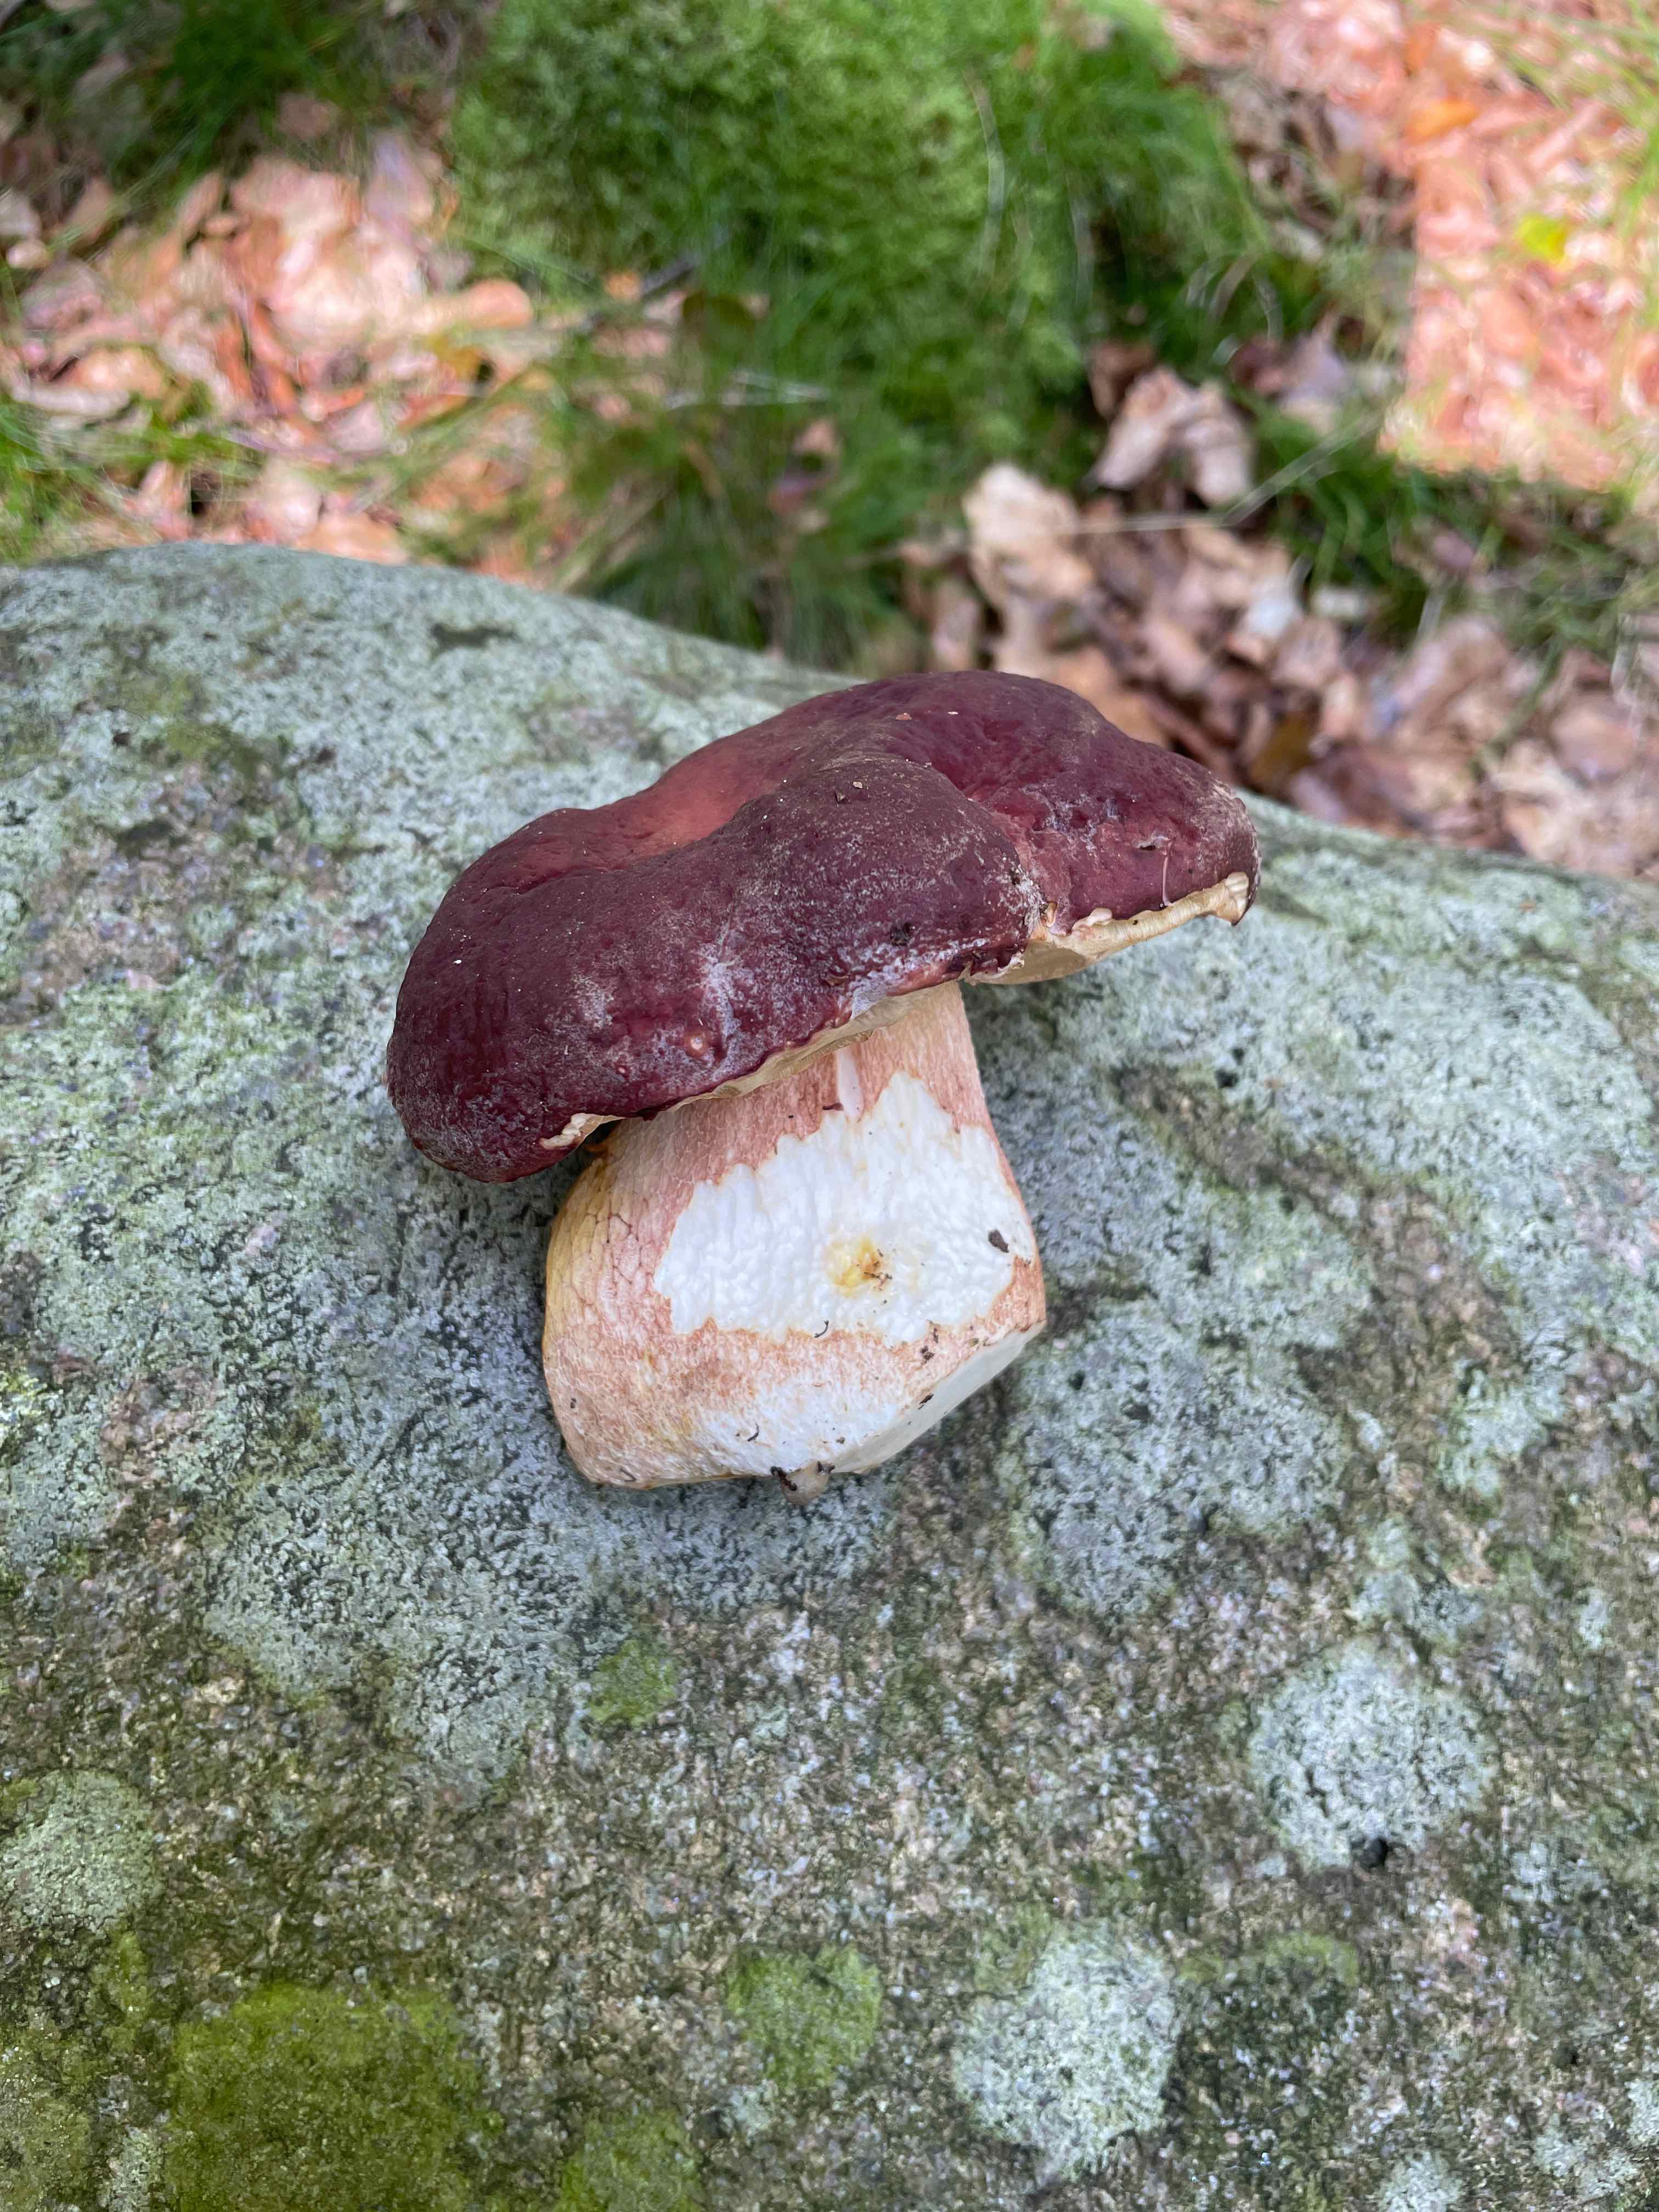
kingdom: Fungi
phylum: Basidiomycota
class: Agaricomycetes
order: Boletales
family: Boletaceae
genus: Boletus
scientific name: Boletus
